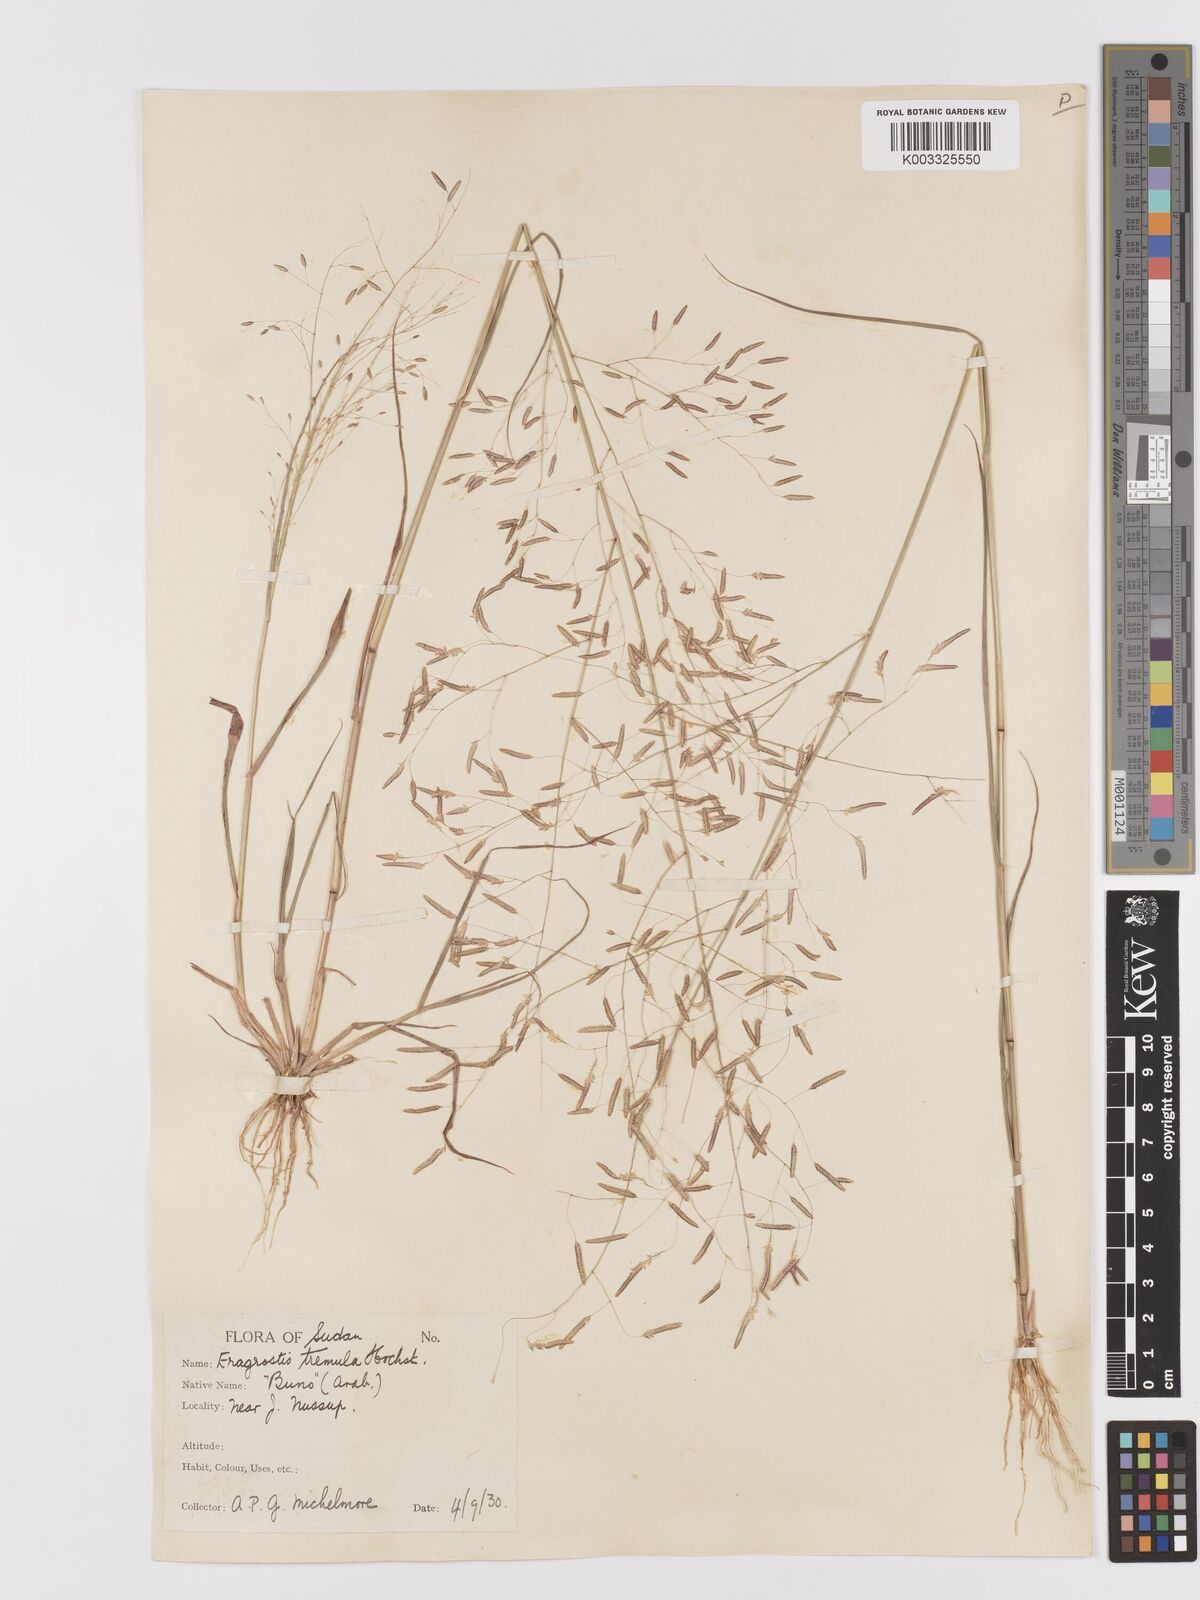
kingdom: Plantae
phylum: Tracheophyta
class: Liliopsida
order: Poales
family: Poaceae
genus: Eragrostis
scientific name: Eragrostis tremula
